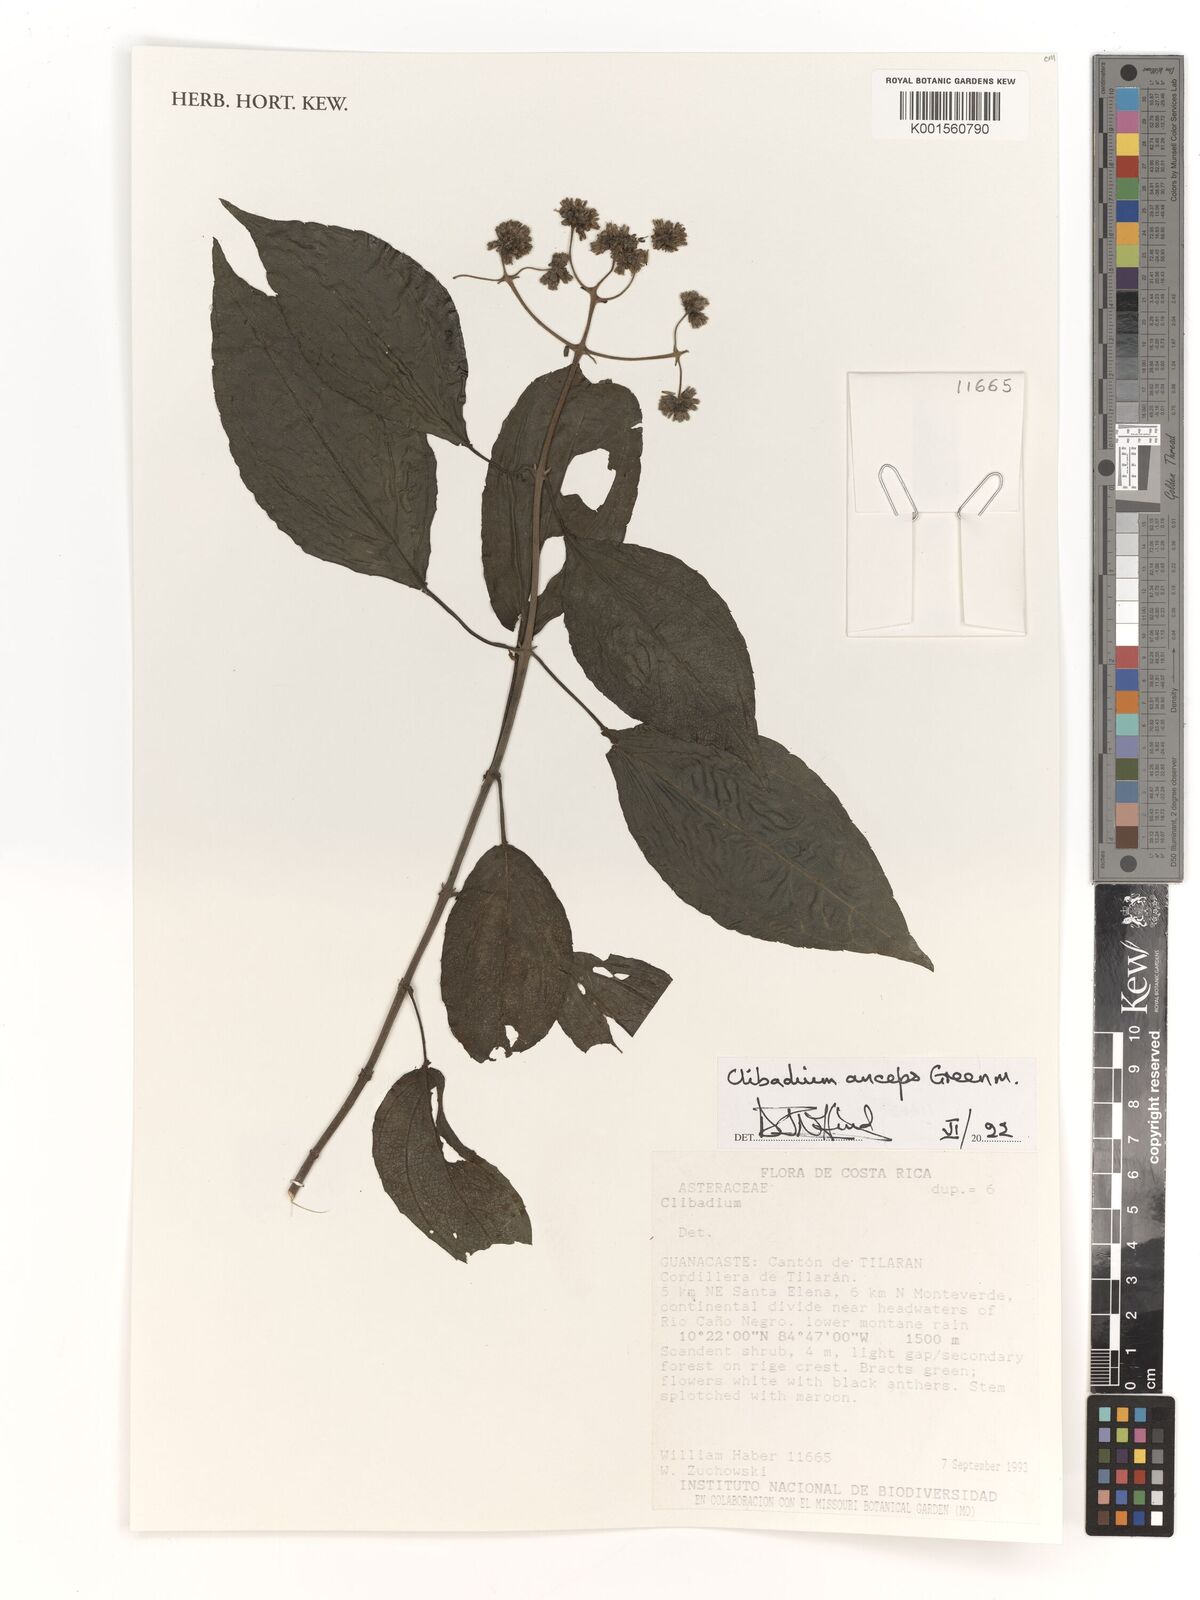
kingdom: Plantae
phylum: Tracheophyta
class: Magnoliopsida
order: Asterales
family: Asteraceae
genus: Clibadium
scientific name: Clibadium anceps
